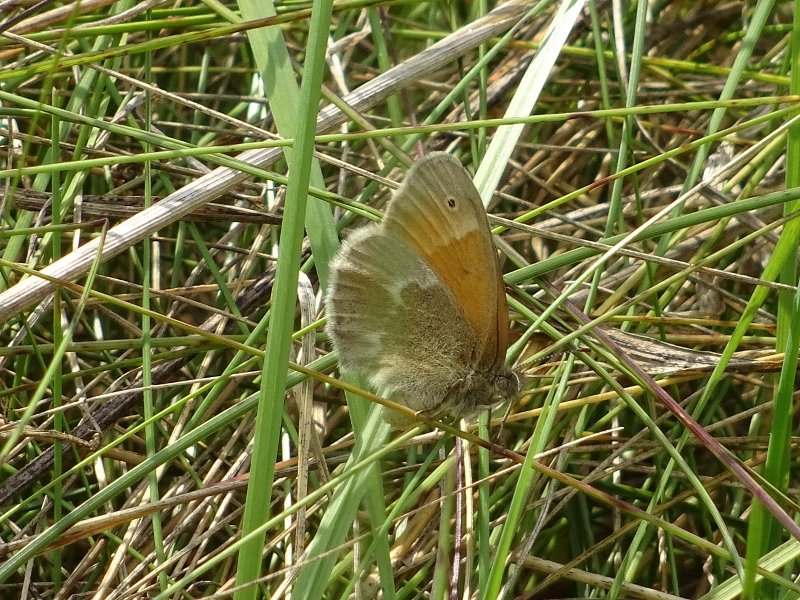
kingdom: Animalia
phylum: Arthropoda
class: Insecta
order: Lepidoptera
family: Nymphalidae
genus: Coenonympha
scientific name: Coenonympha tullia
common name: Large Heath
